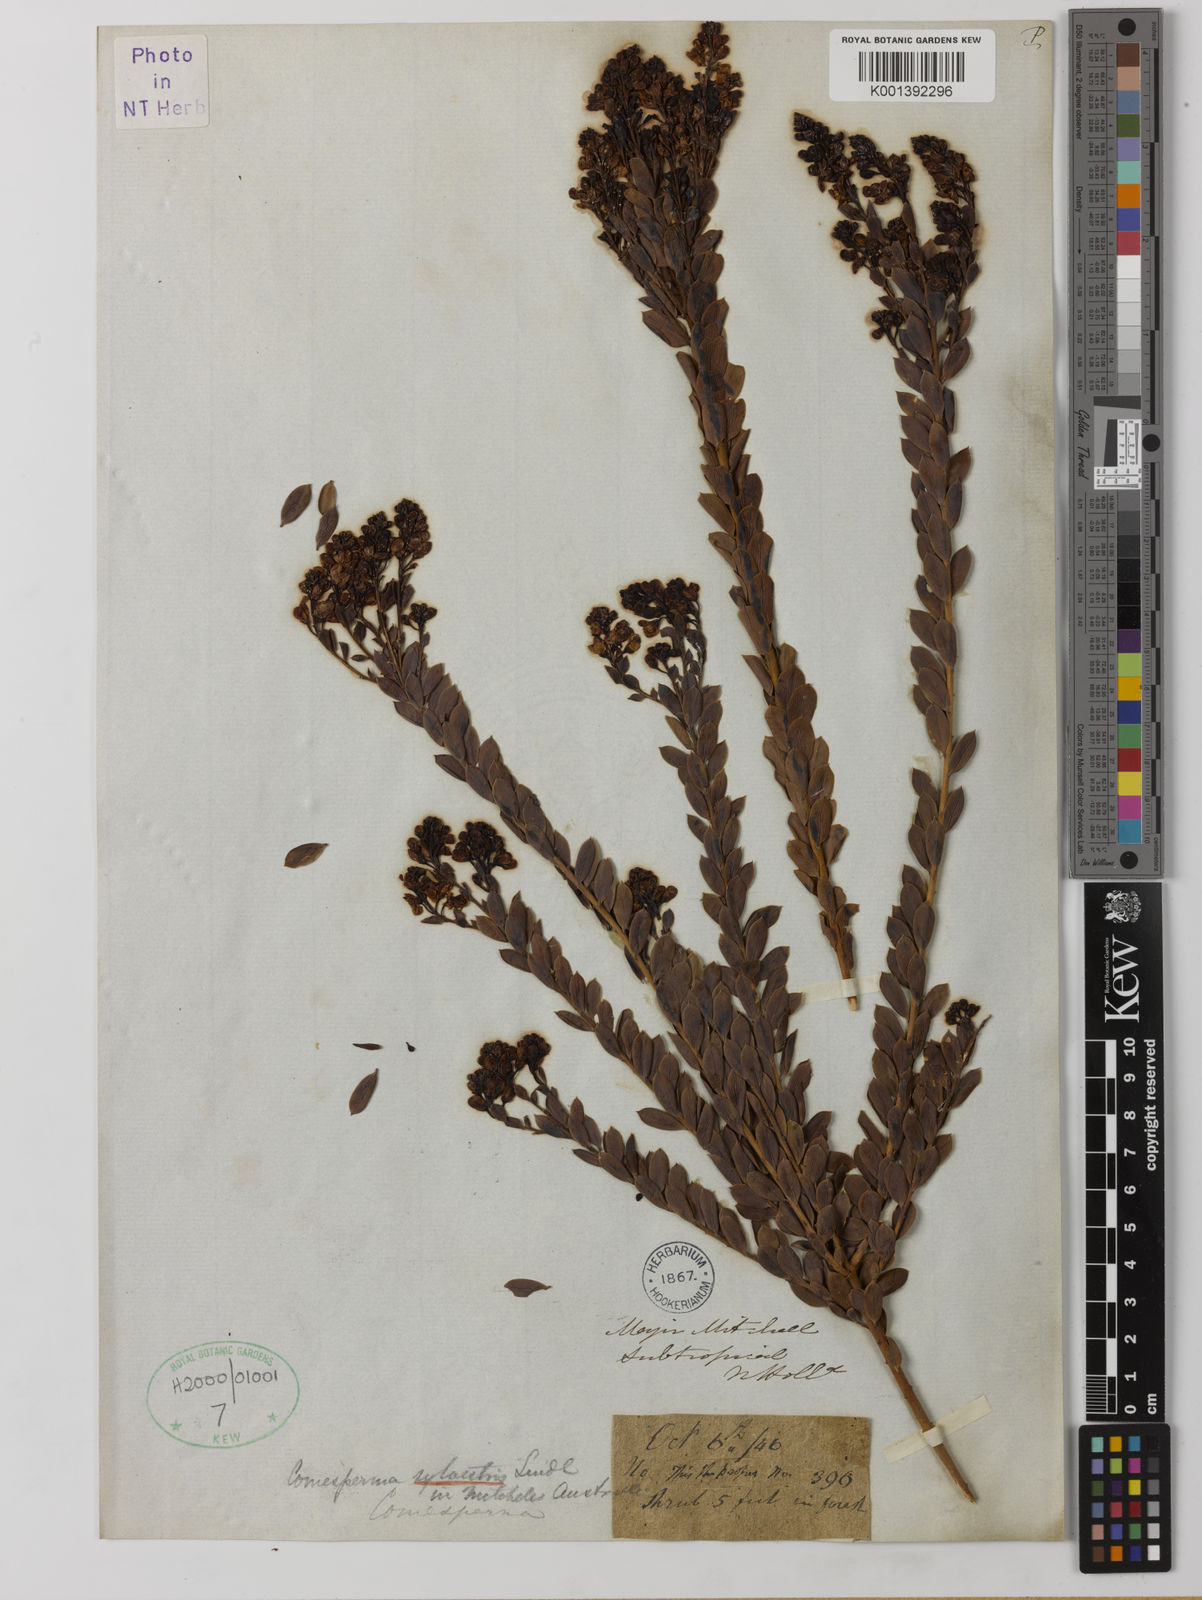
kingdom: Plantae
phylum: Tracheophyta
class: Magnoliopsida
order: Fabales
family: Polygalaceae
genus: Comesperma
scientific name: Comesperma sylvestre
